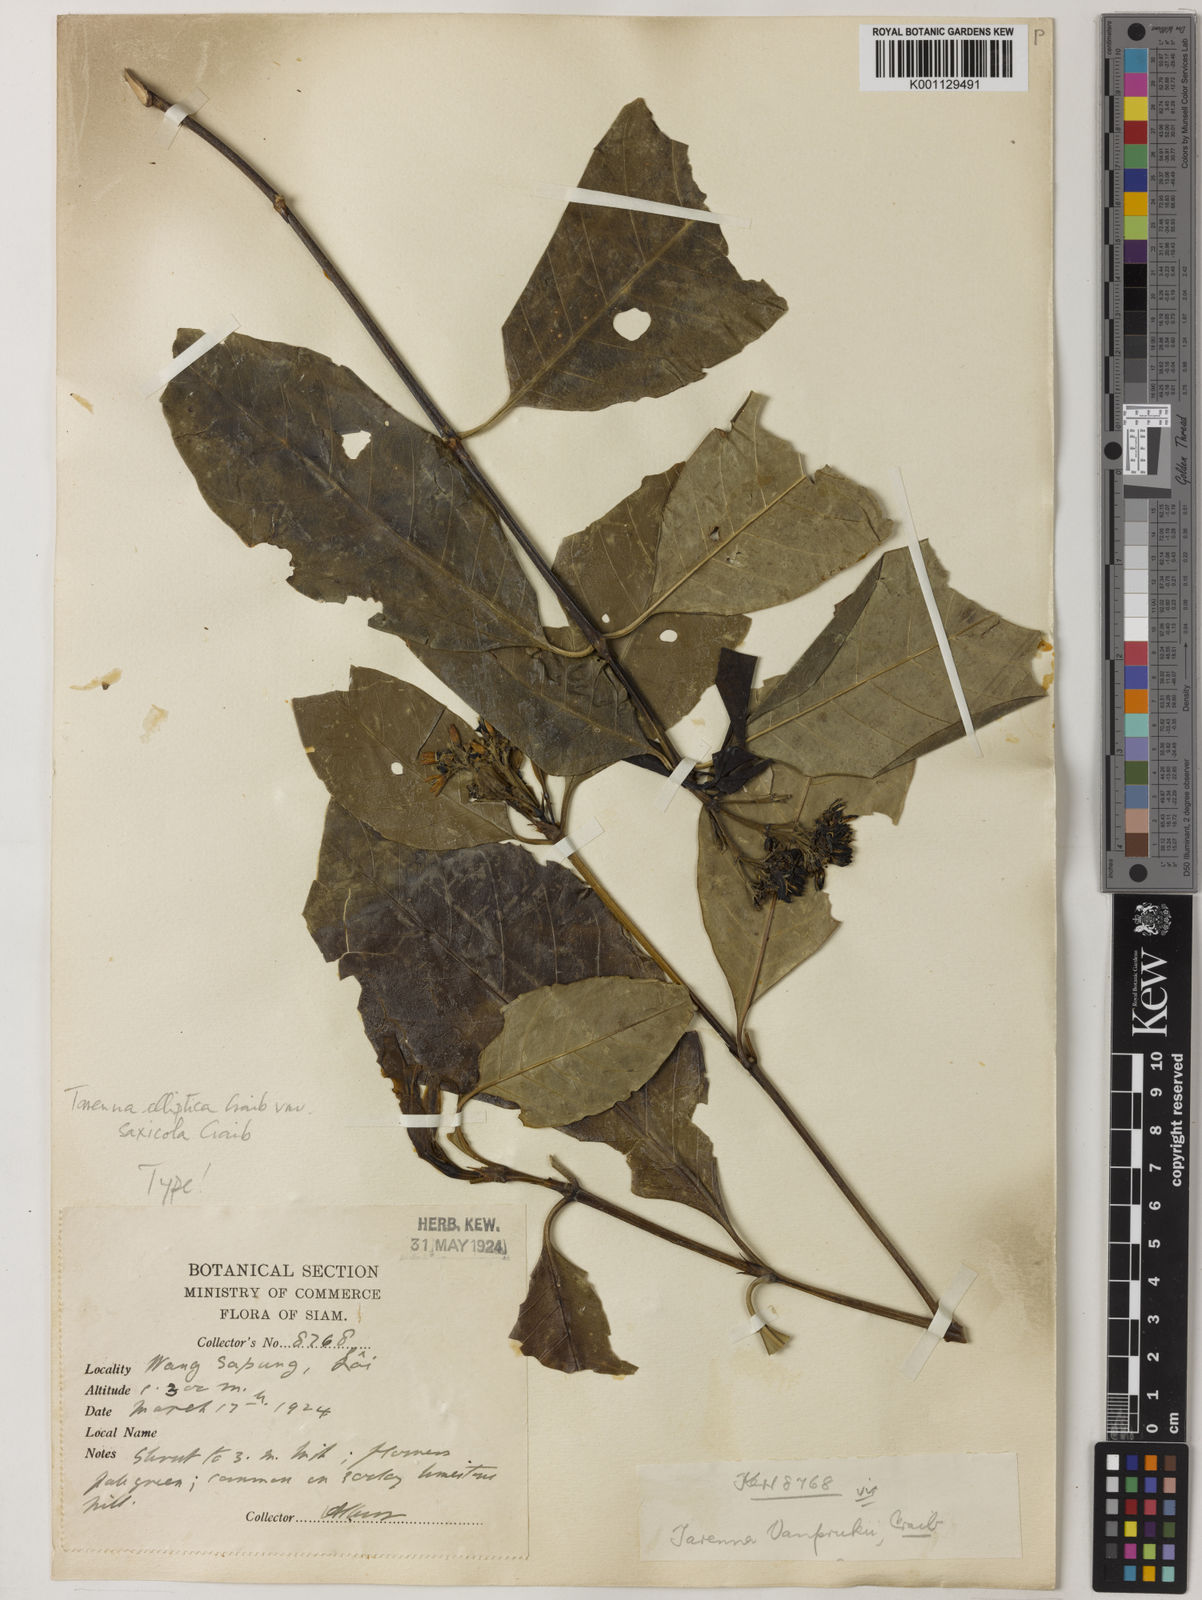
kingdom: Plantae
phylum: Tracheophyta
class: Magnoliopsida
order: Gentianales
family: Rubiaceae
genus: Tarenna
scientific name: Tarenna collinsiae
